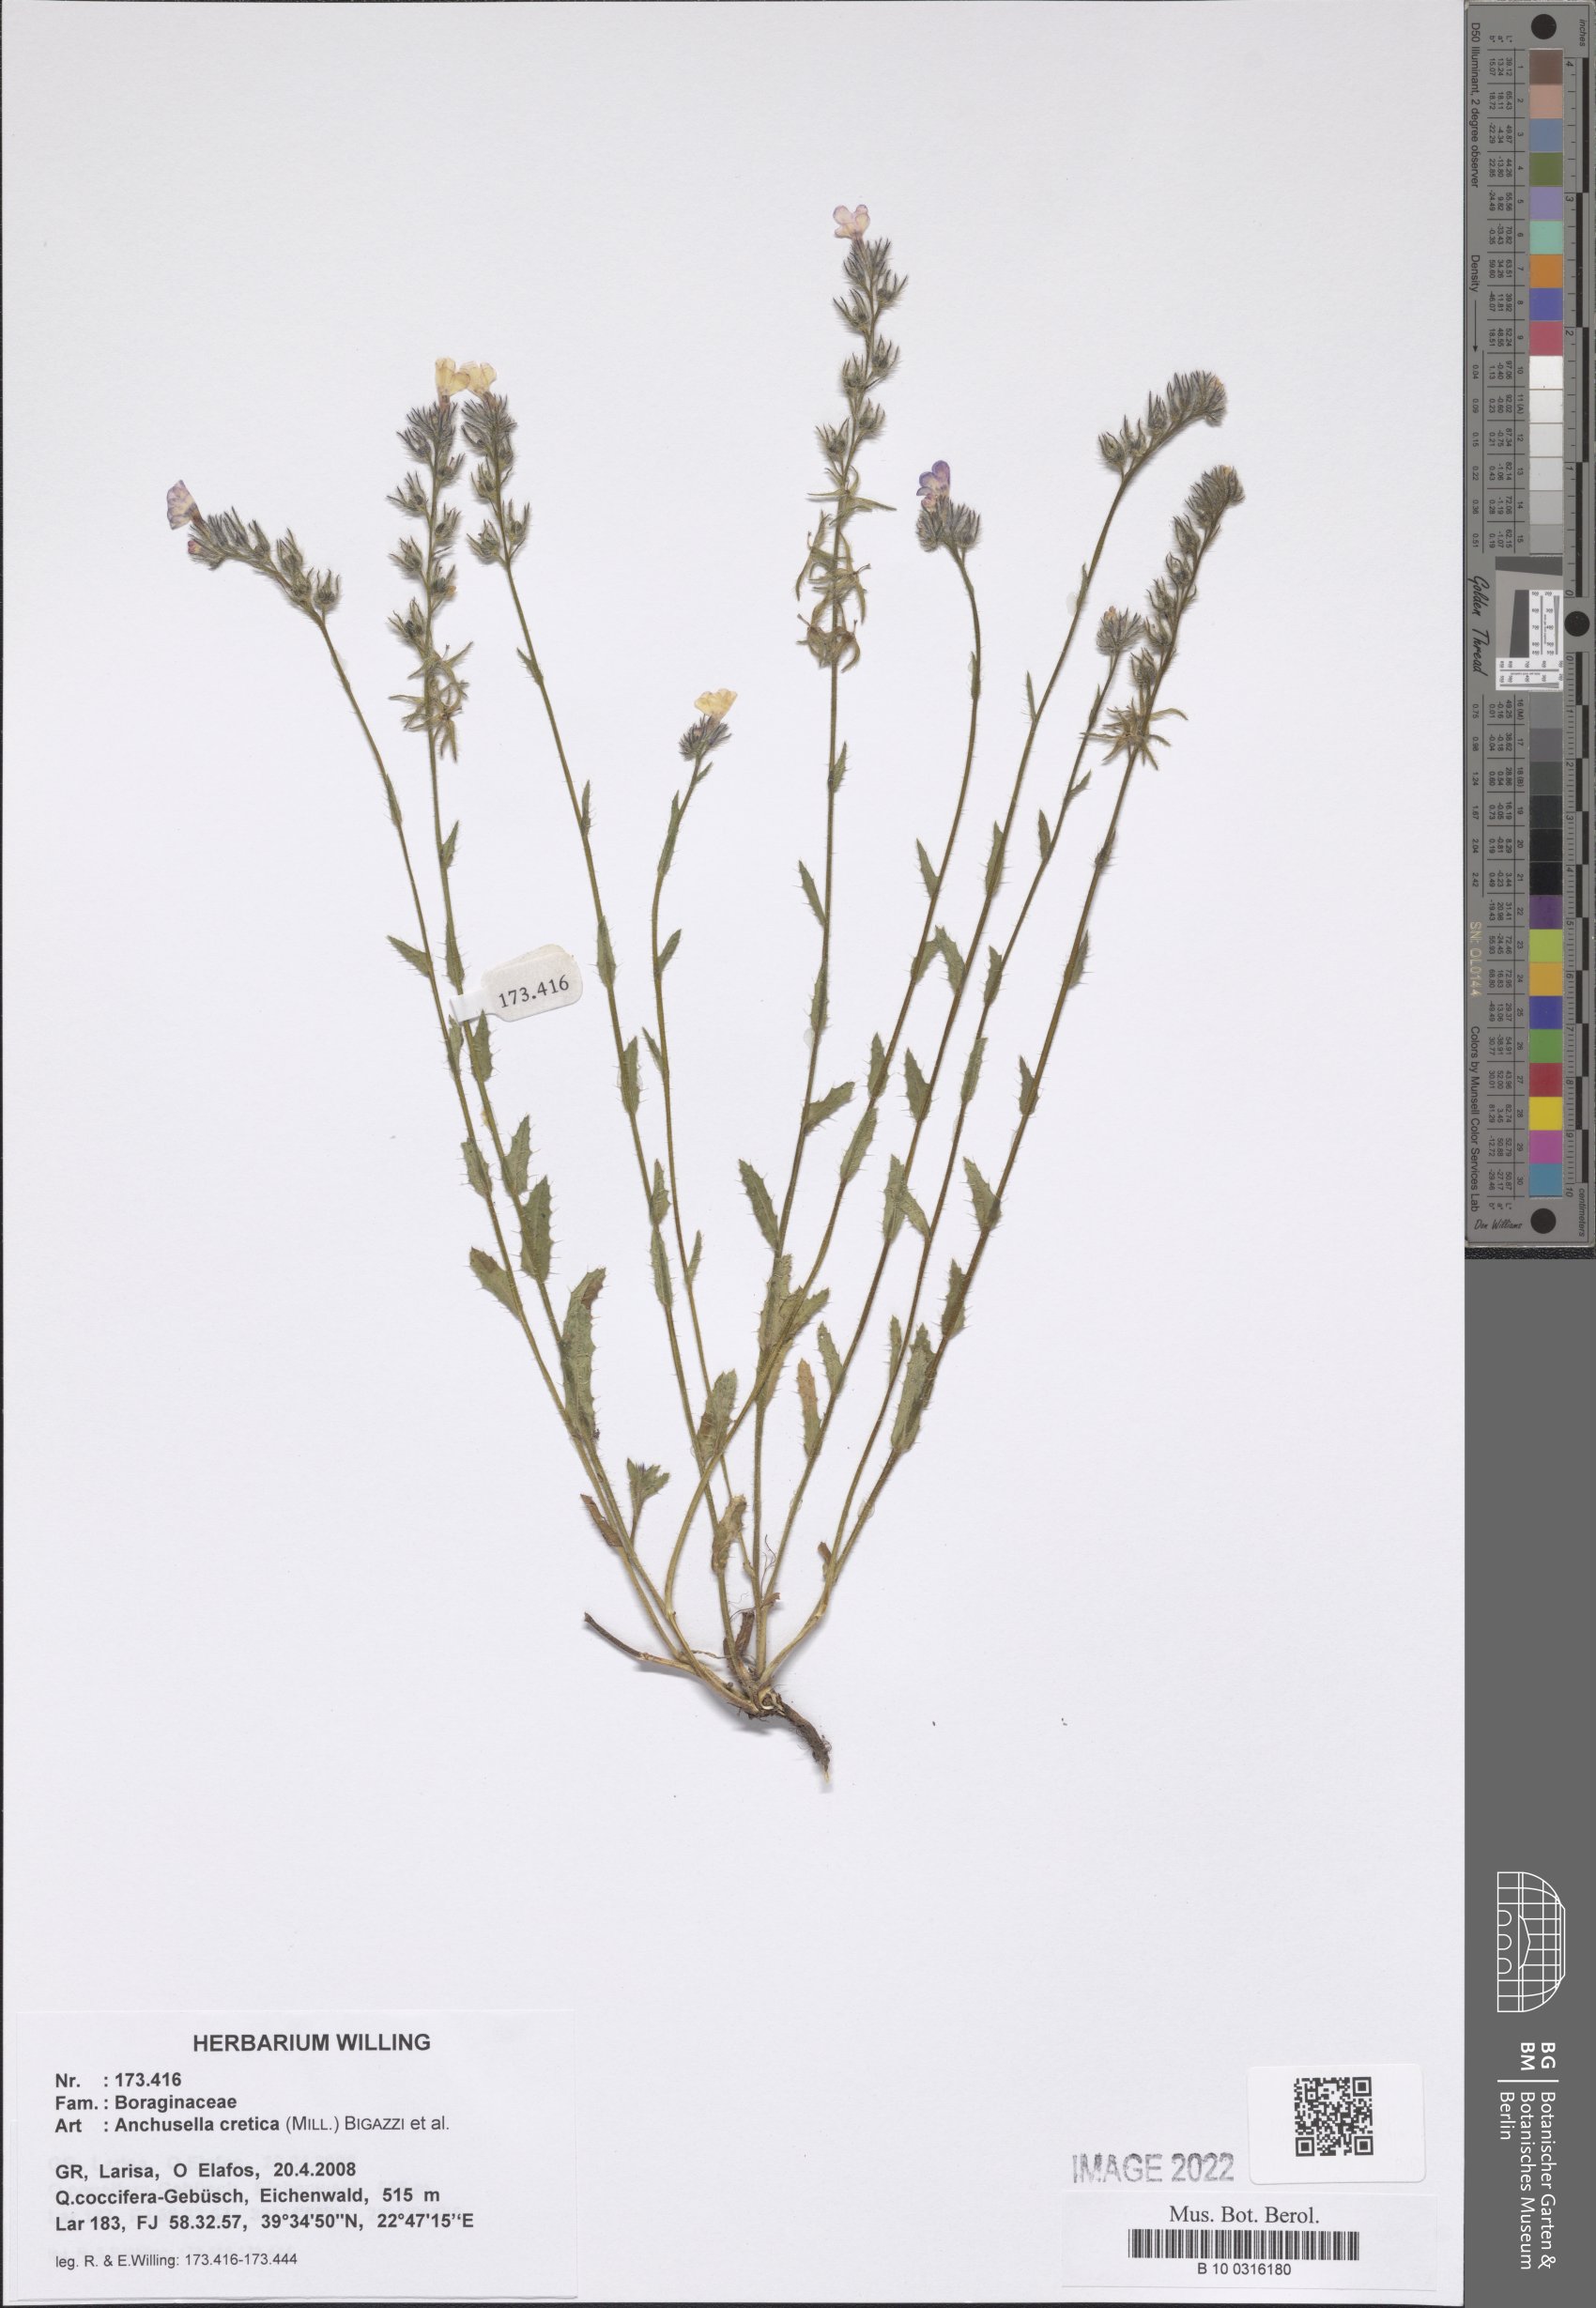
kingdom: Plantae
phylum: Tracheophyta
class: Magnoliopsida
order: Boraginales
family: Boraginaceae
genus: Anchusella
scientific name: Anchusella cretica
